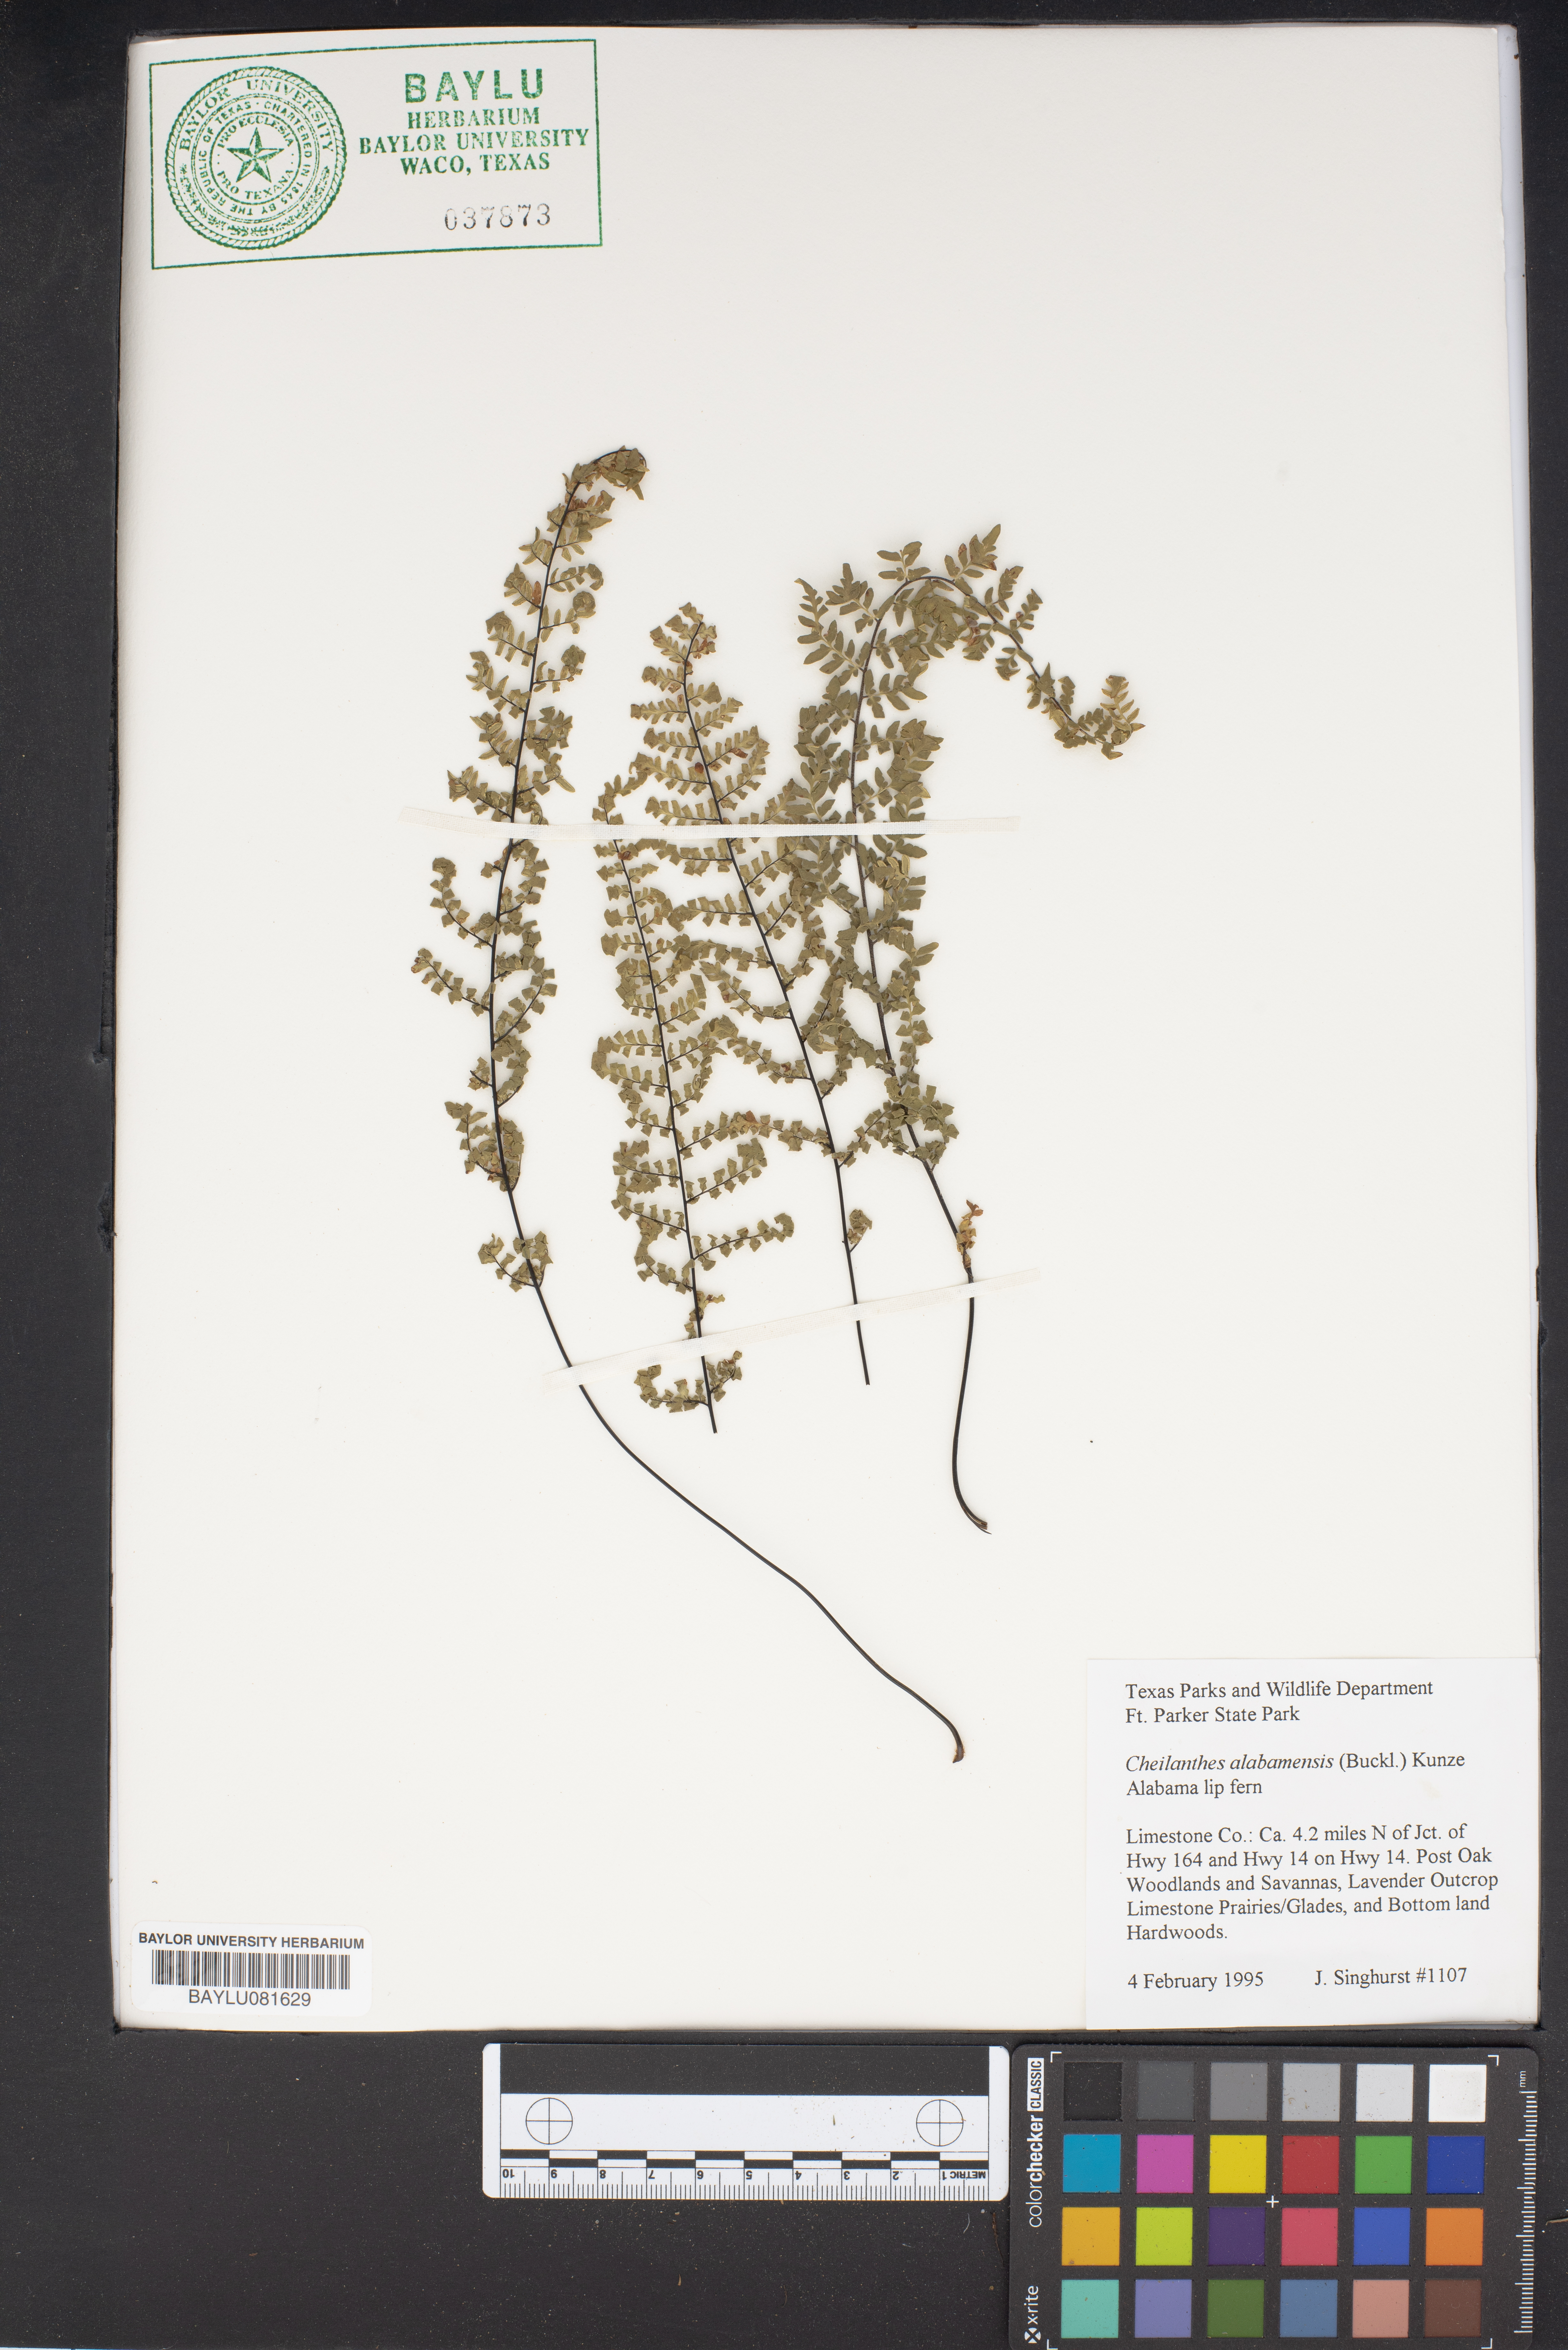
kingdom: Plantae
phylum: Tracheophyta
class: Polypodiopsida
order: Polypodiales
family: Pteridaceae
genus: Myriopteris
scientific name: Myriopteris alabamensis
